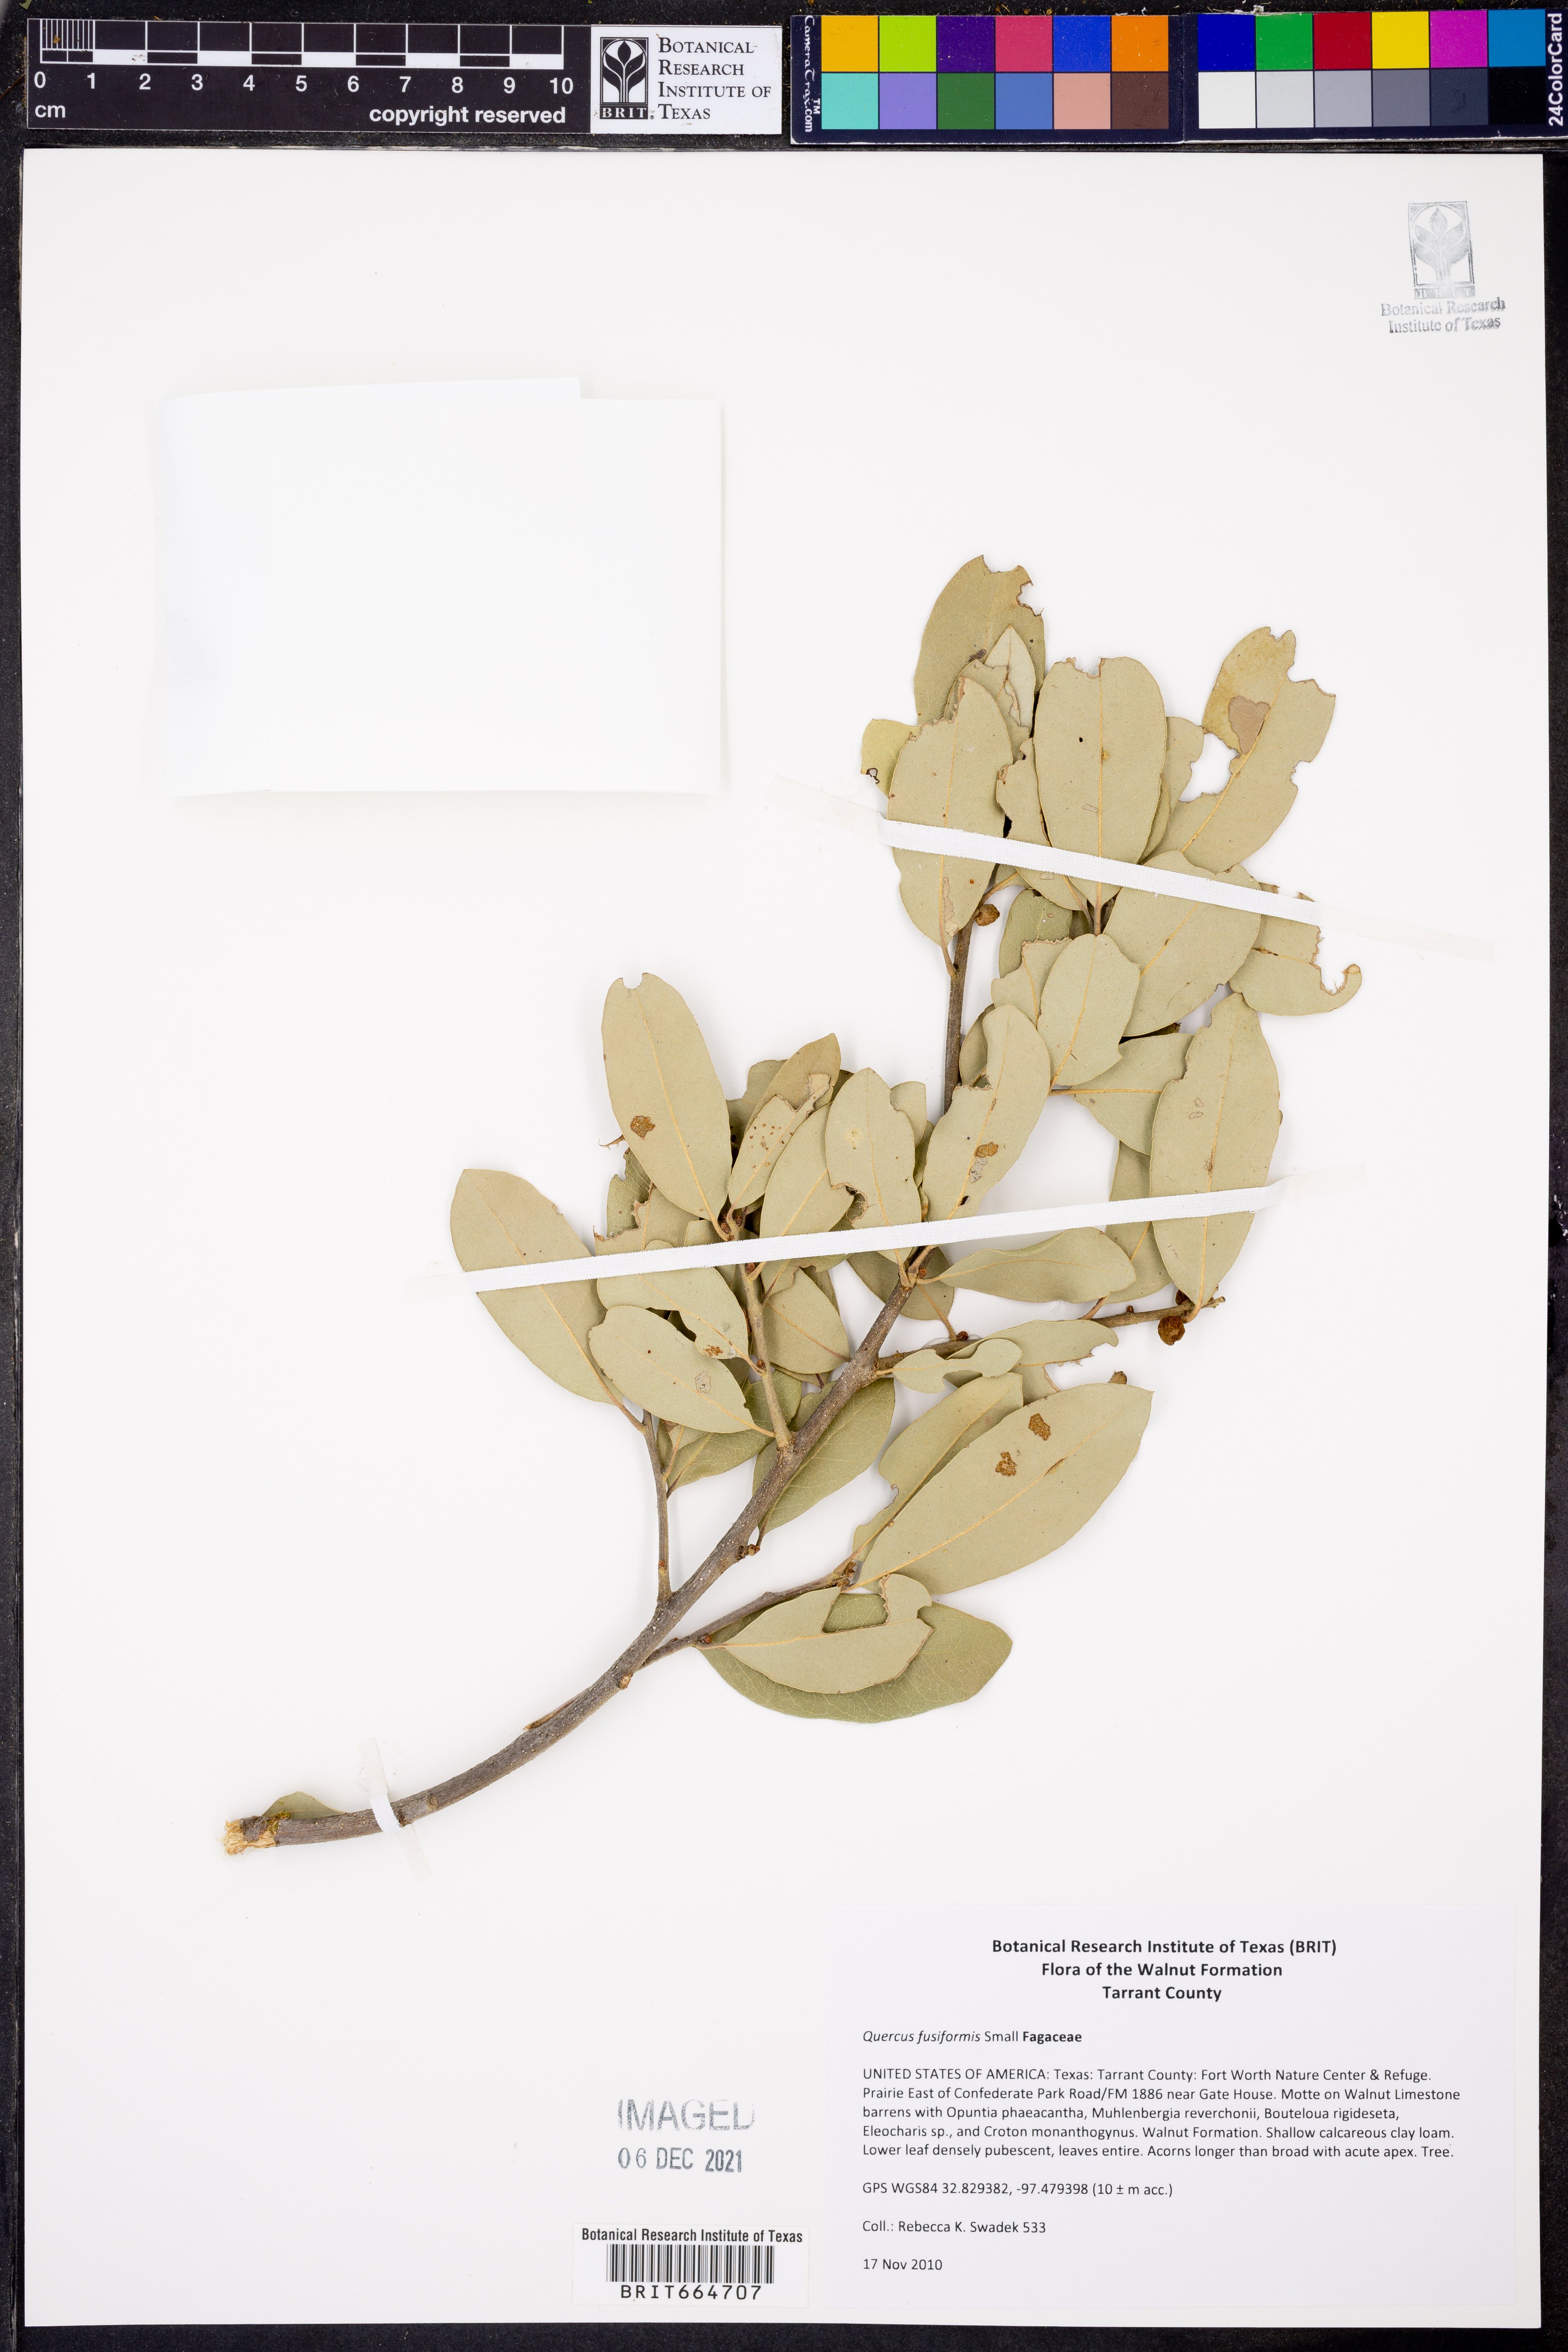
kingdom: Plantae
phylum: Tracheophyta
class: Magnoliopsida
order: Fagales
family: Fagaceae
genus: Quercus
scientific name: Quercus fusiformis
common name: Texas live oak
